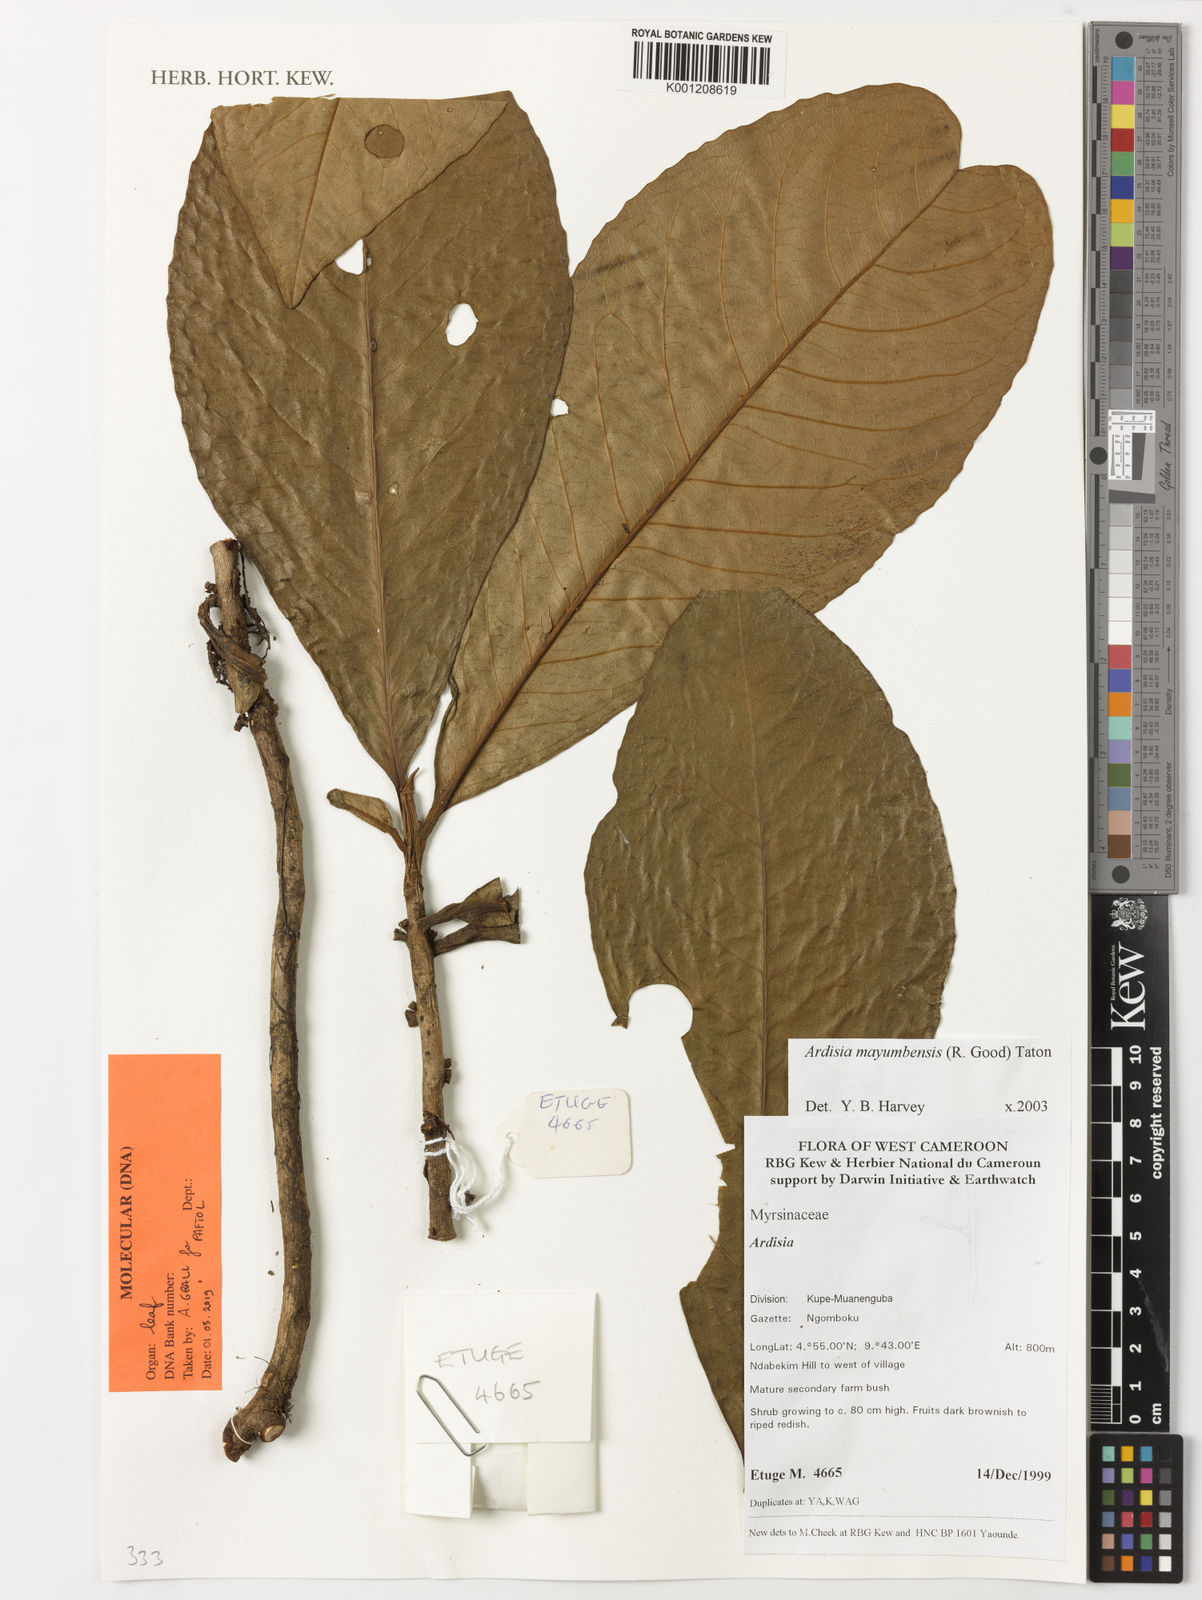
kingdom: Plantae
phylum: Tracheophyta
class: Magnoliopsida
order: Ericales
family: Primulaceae
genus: Ardisia
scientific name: Ardisia mayumbensis
